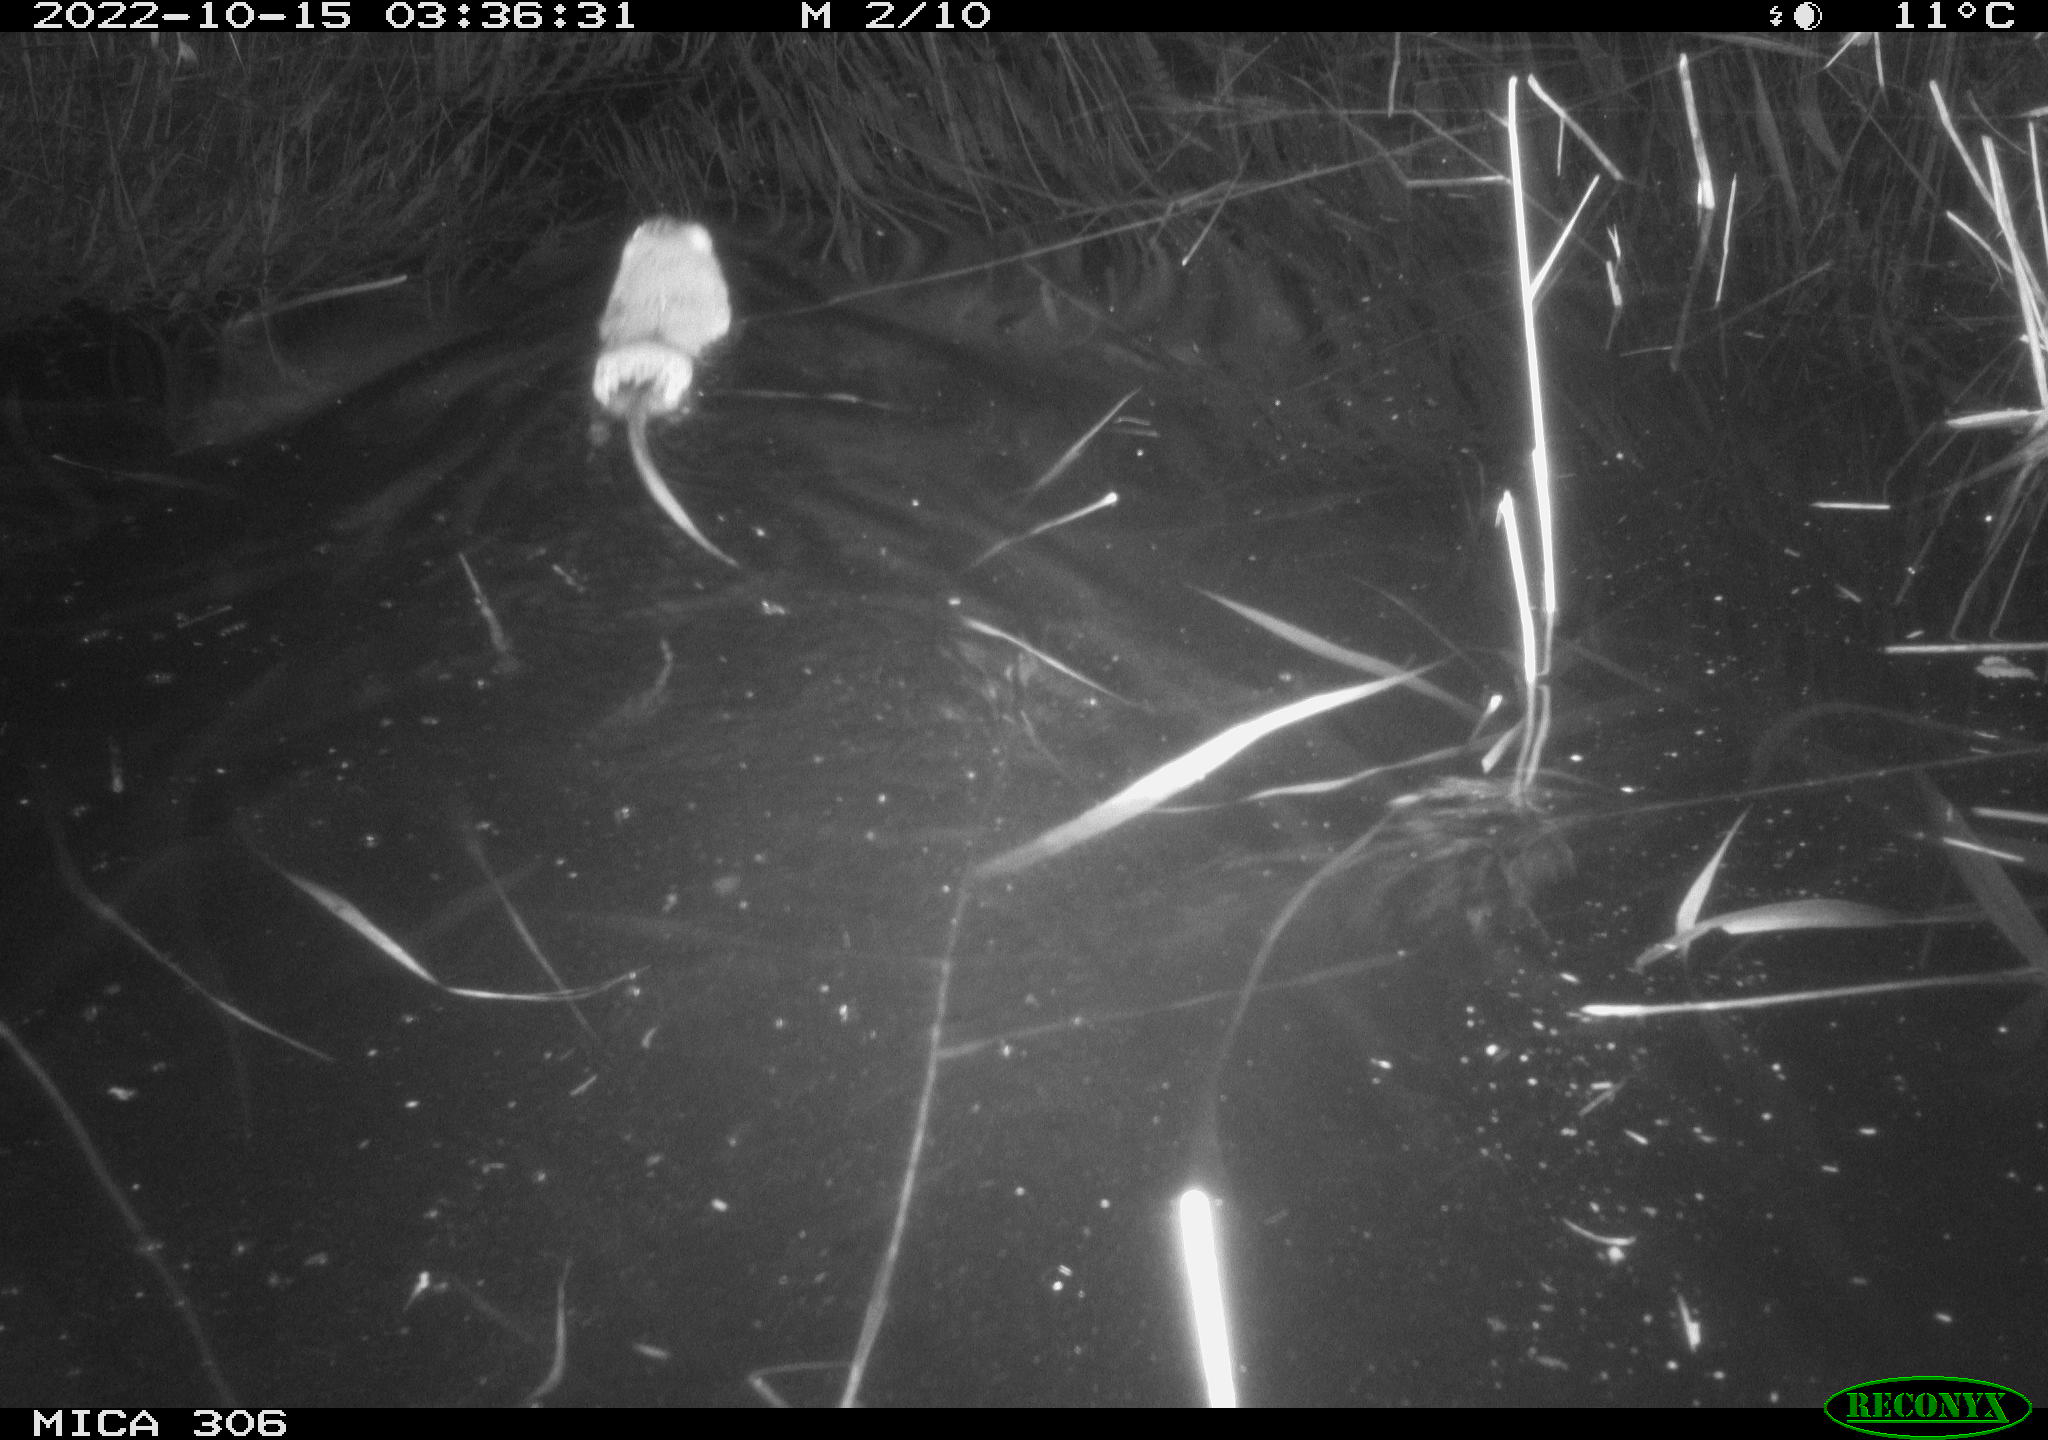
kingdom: Animalia
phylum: Chordata
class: Mammalia
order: Rodentia
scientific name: Rodentia
